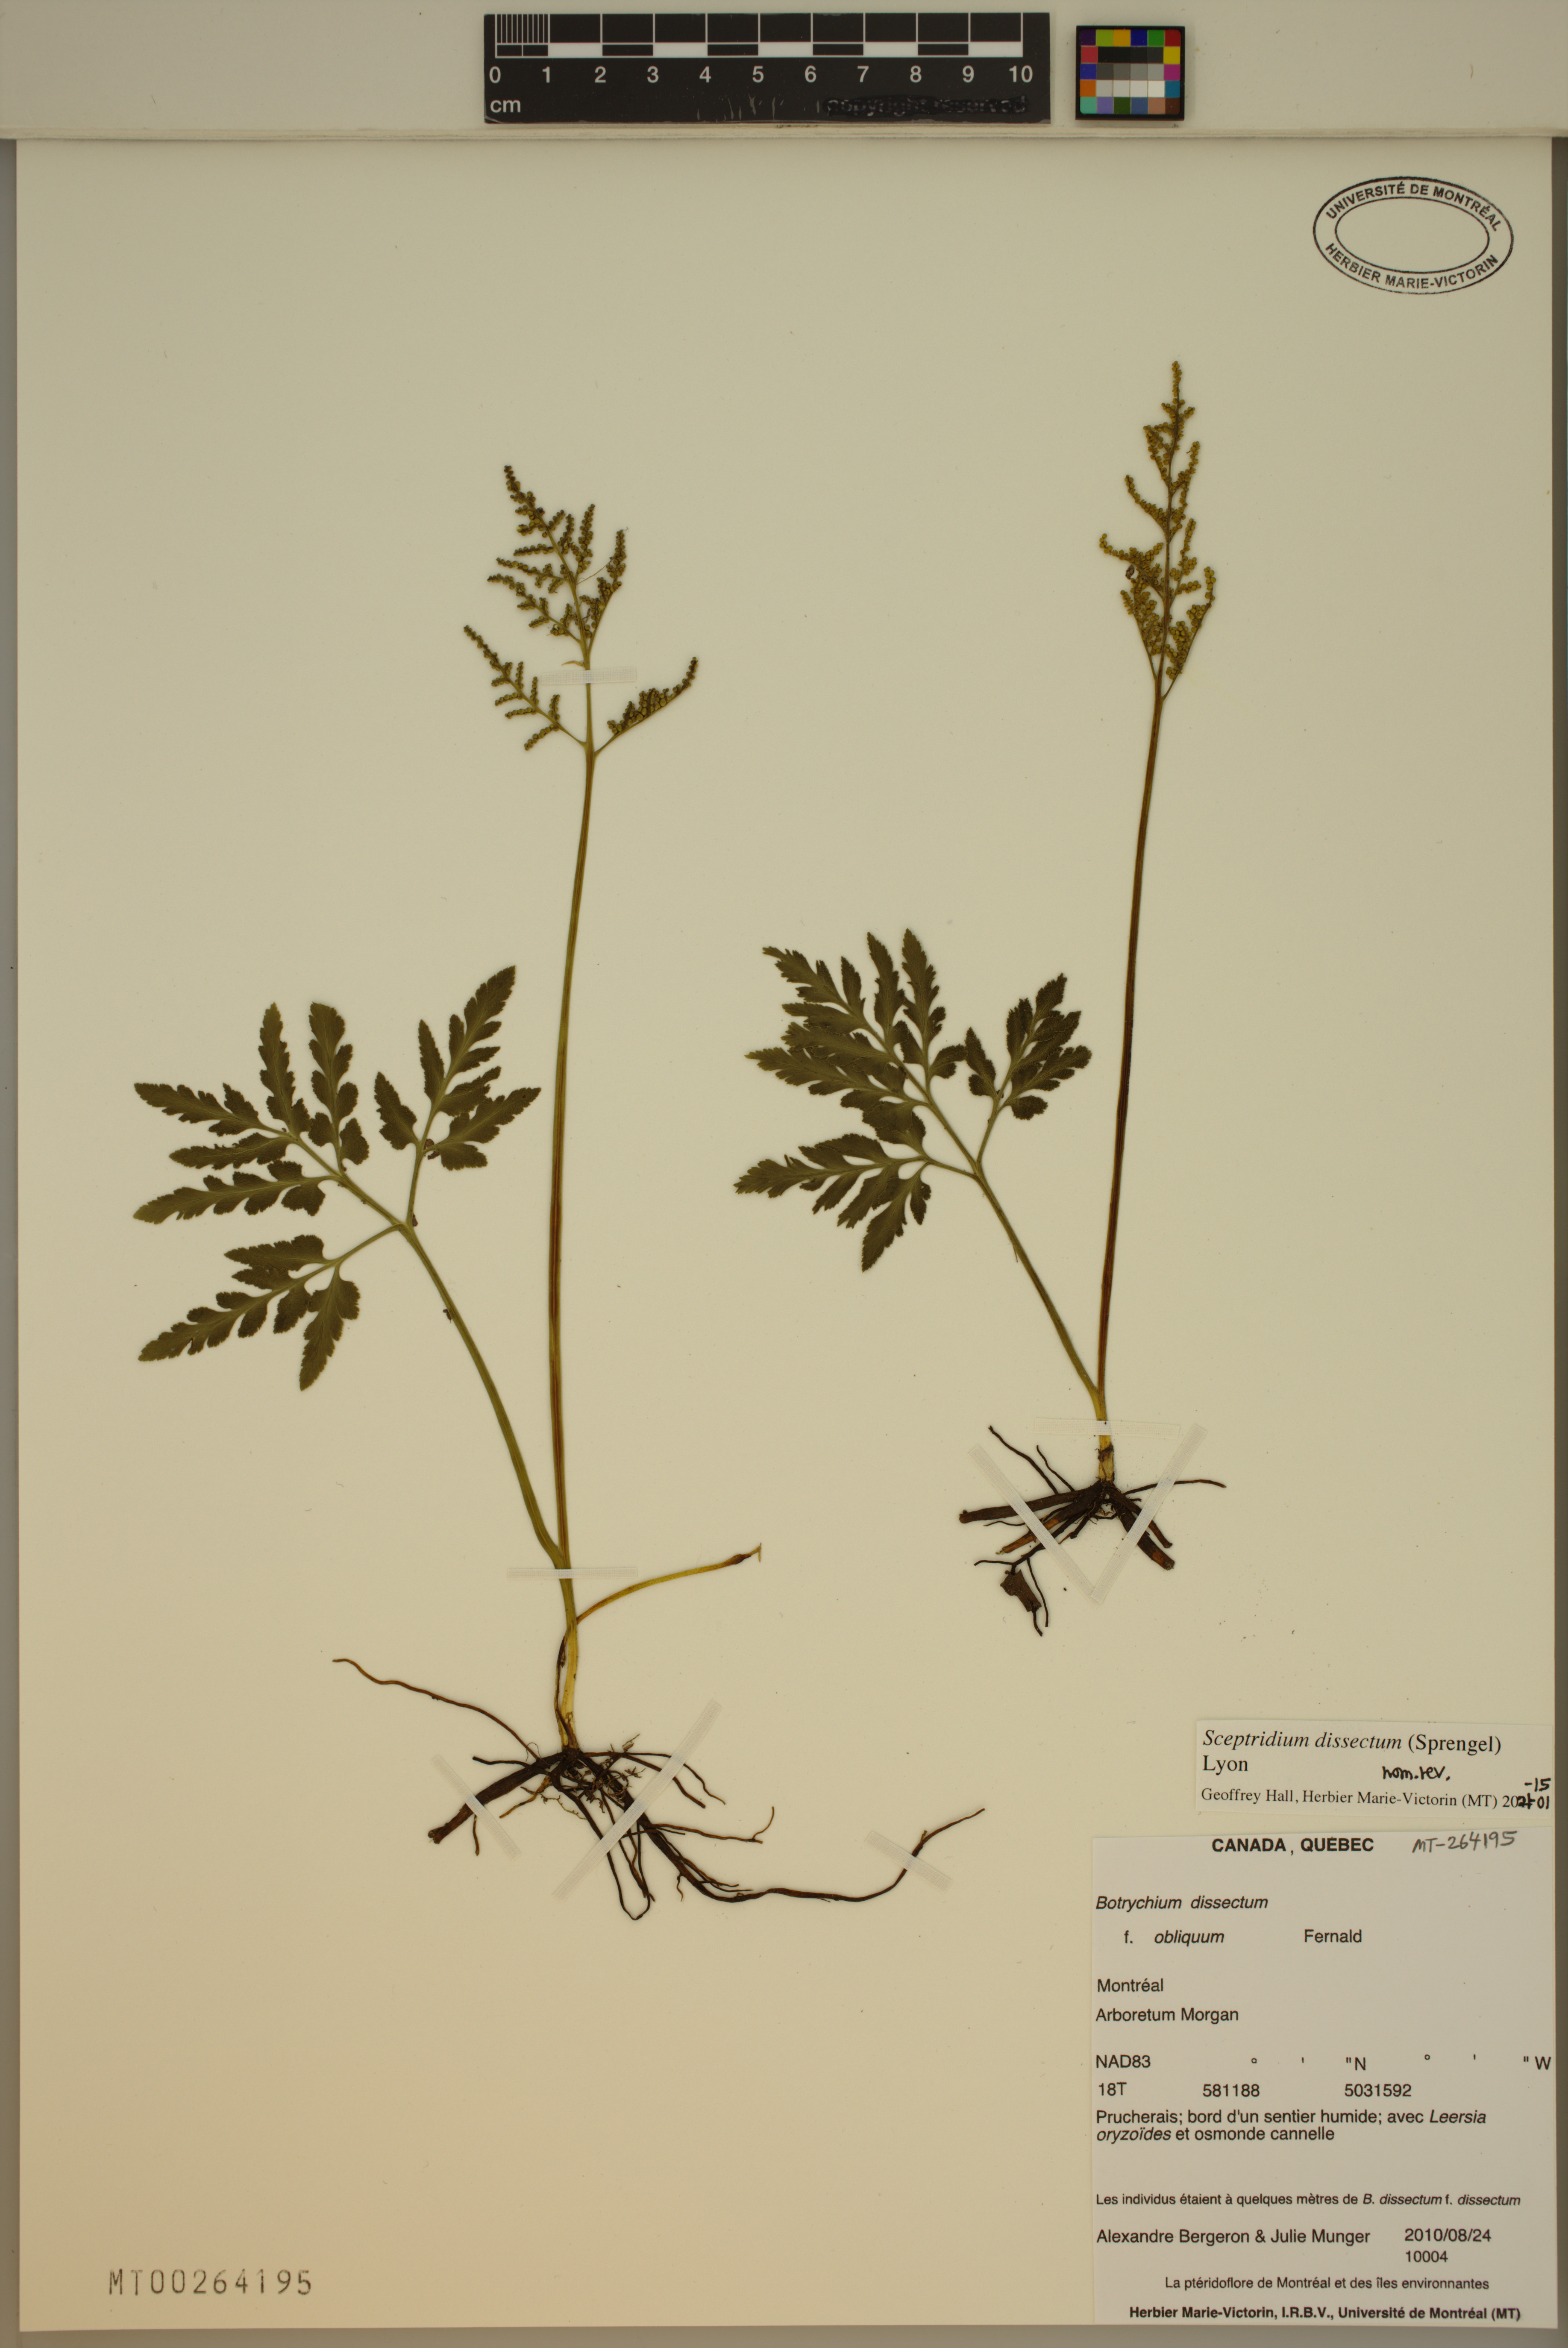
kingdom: Plantae
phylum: Tracheophyta
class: Polypodiopsida
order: Ophioglossales
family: Ophioglossaceae
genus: Sceptridium
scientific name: Sceptridium dissectum
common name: Cut-leaved grapefern
